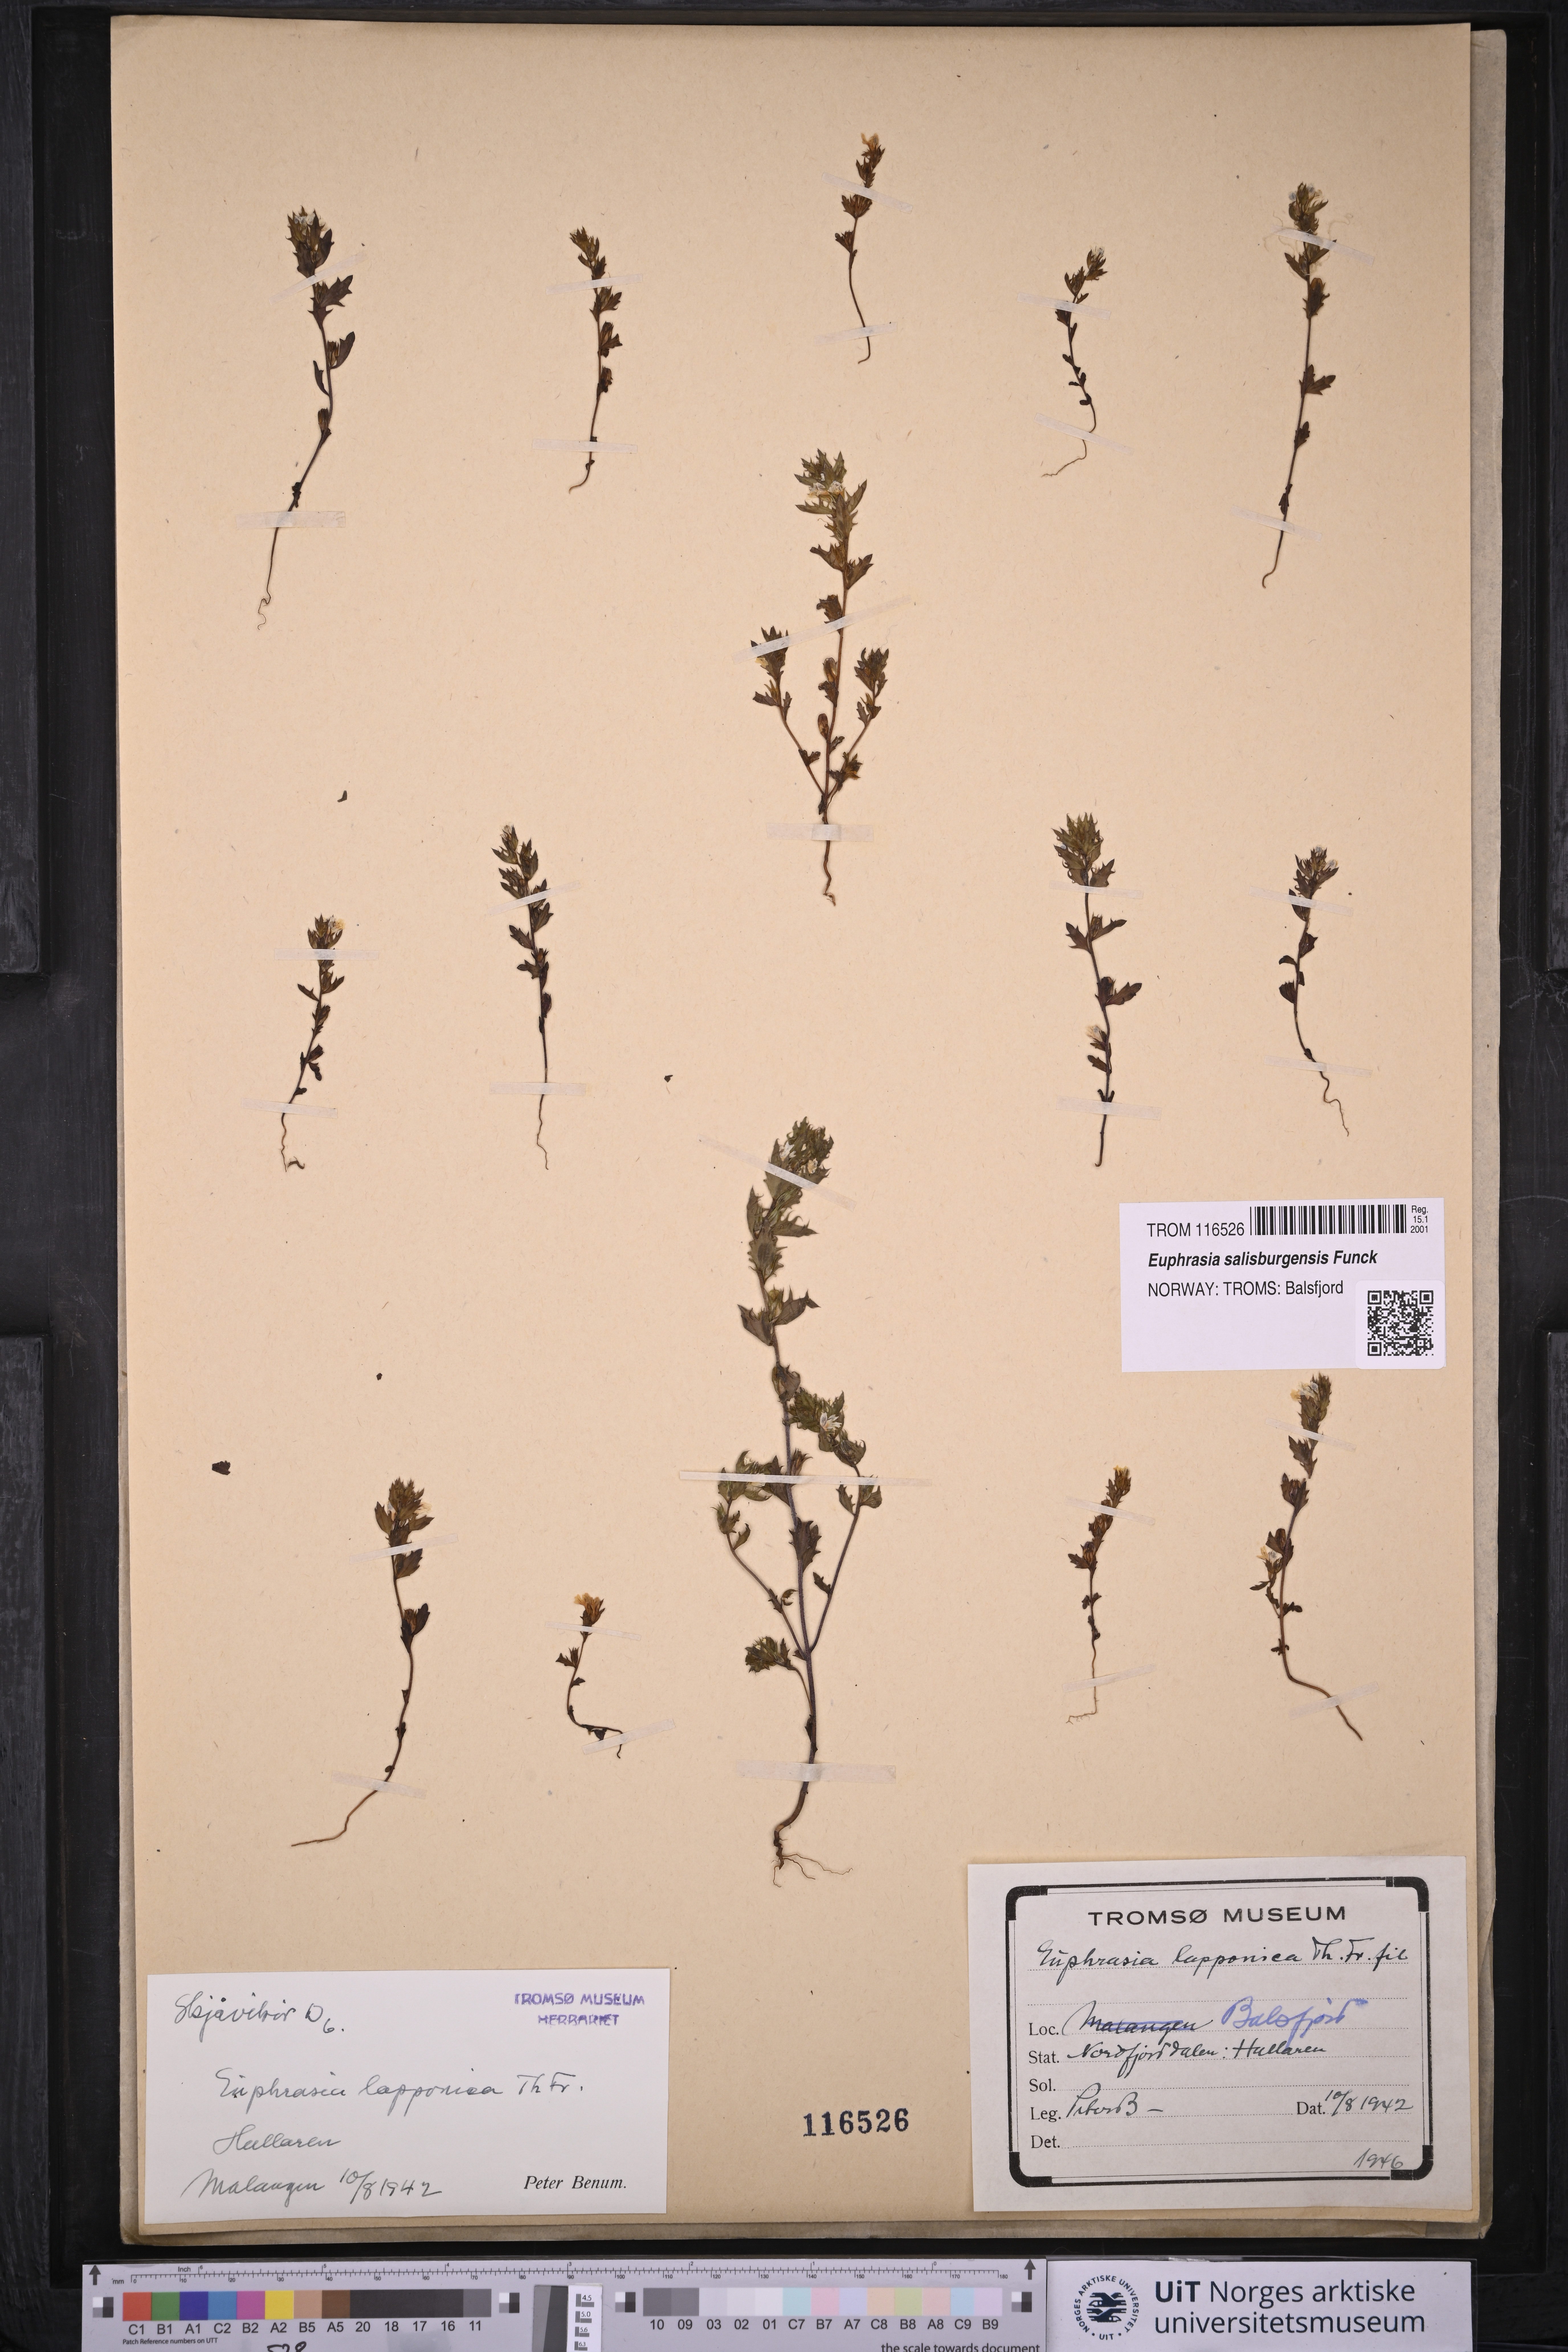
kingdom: Plantae
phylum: Tracheophyta
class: Magnoliopsida
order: Lamiales
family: Orobanchaceae
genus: Euphrasia
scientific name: Euphrasia salisburgensis
